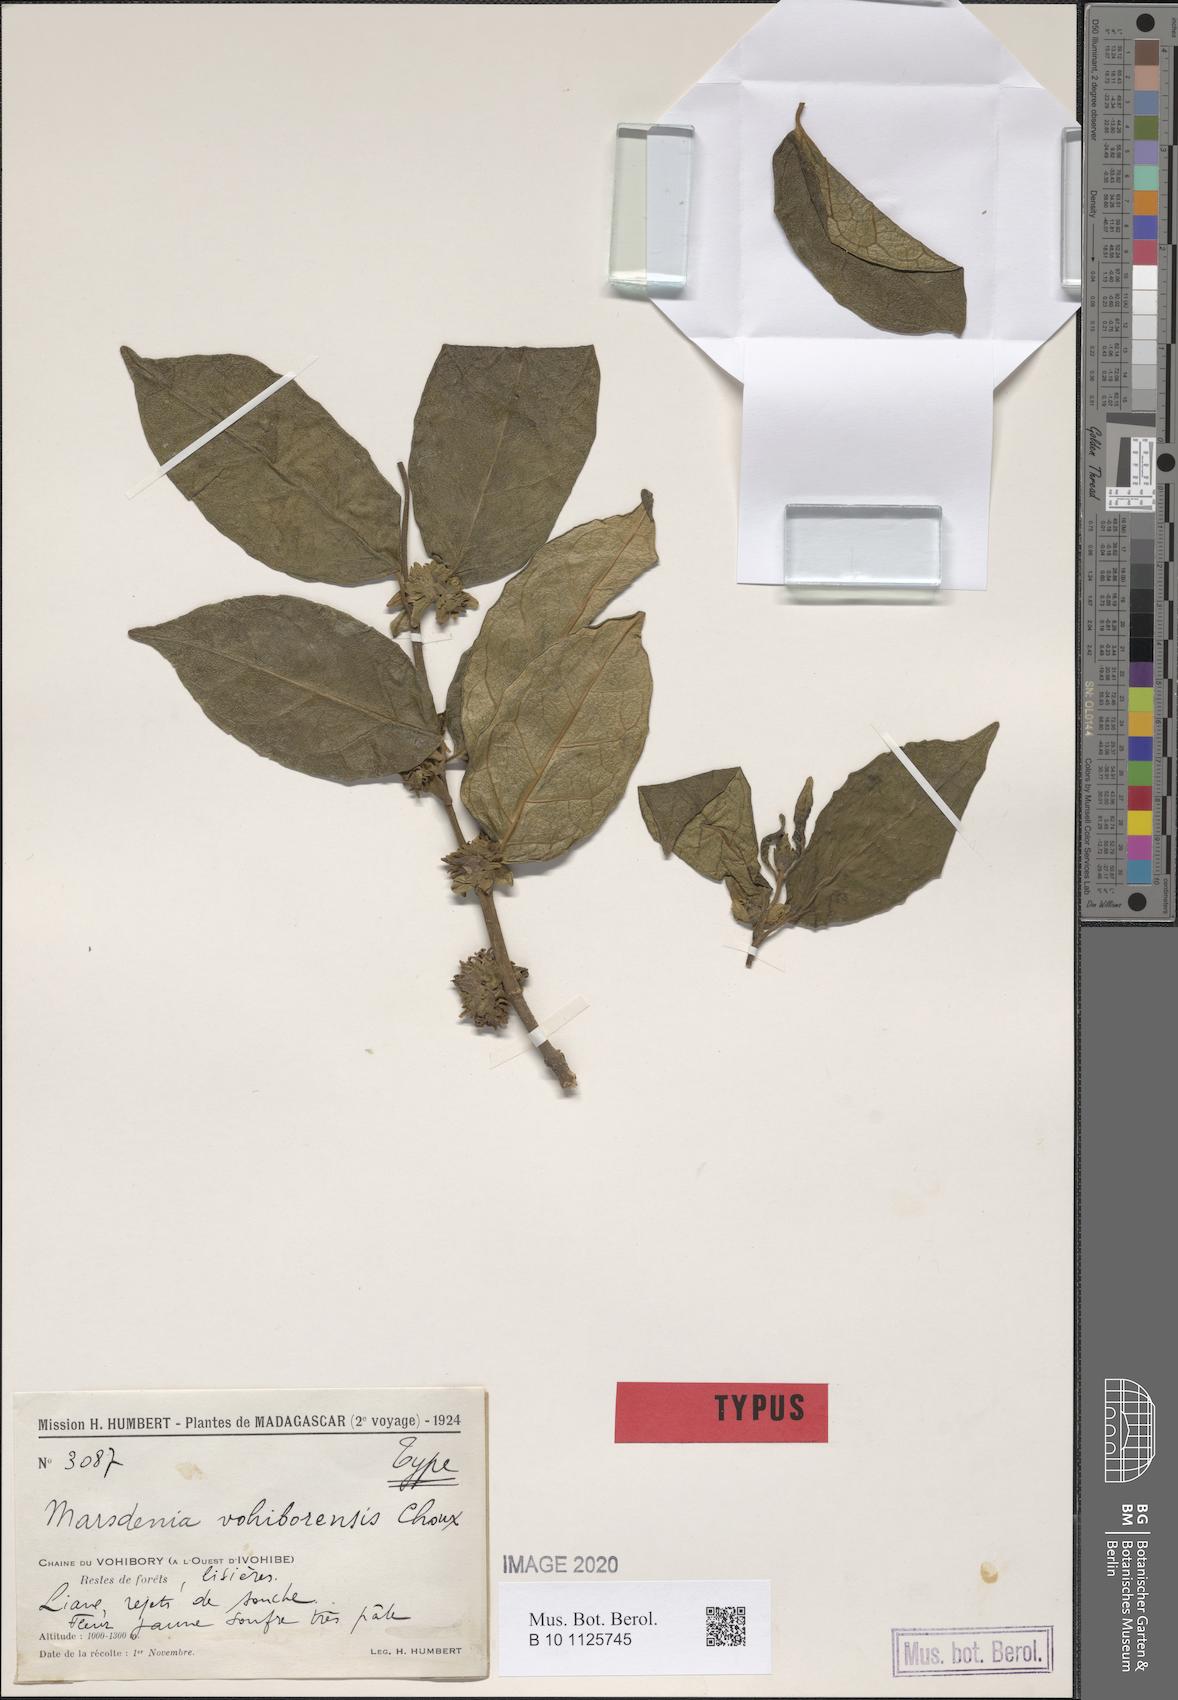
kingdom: Plantae
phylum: Tracheophyta
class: Magnoliopsida
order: Gentianales
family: Apocynaceae
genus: Marsdenia
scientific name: Marsdenia vohiborensis
